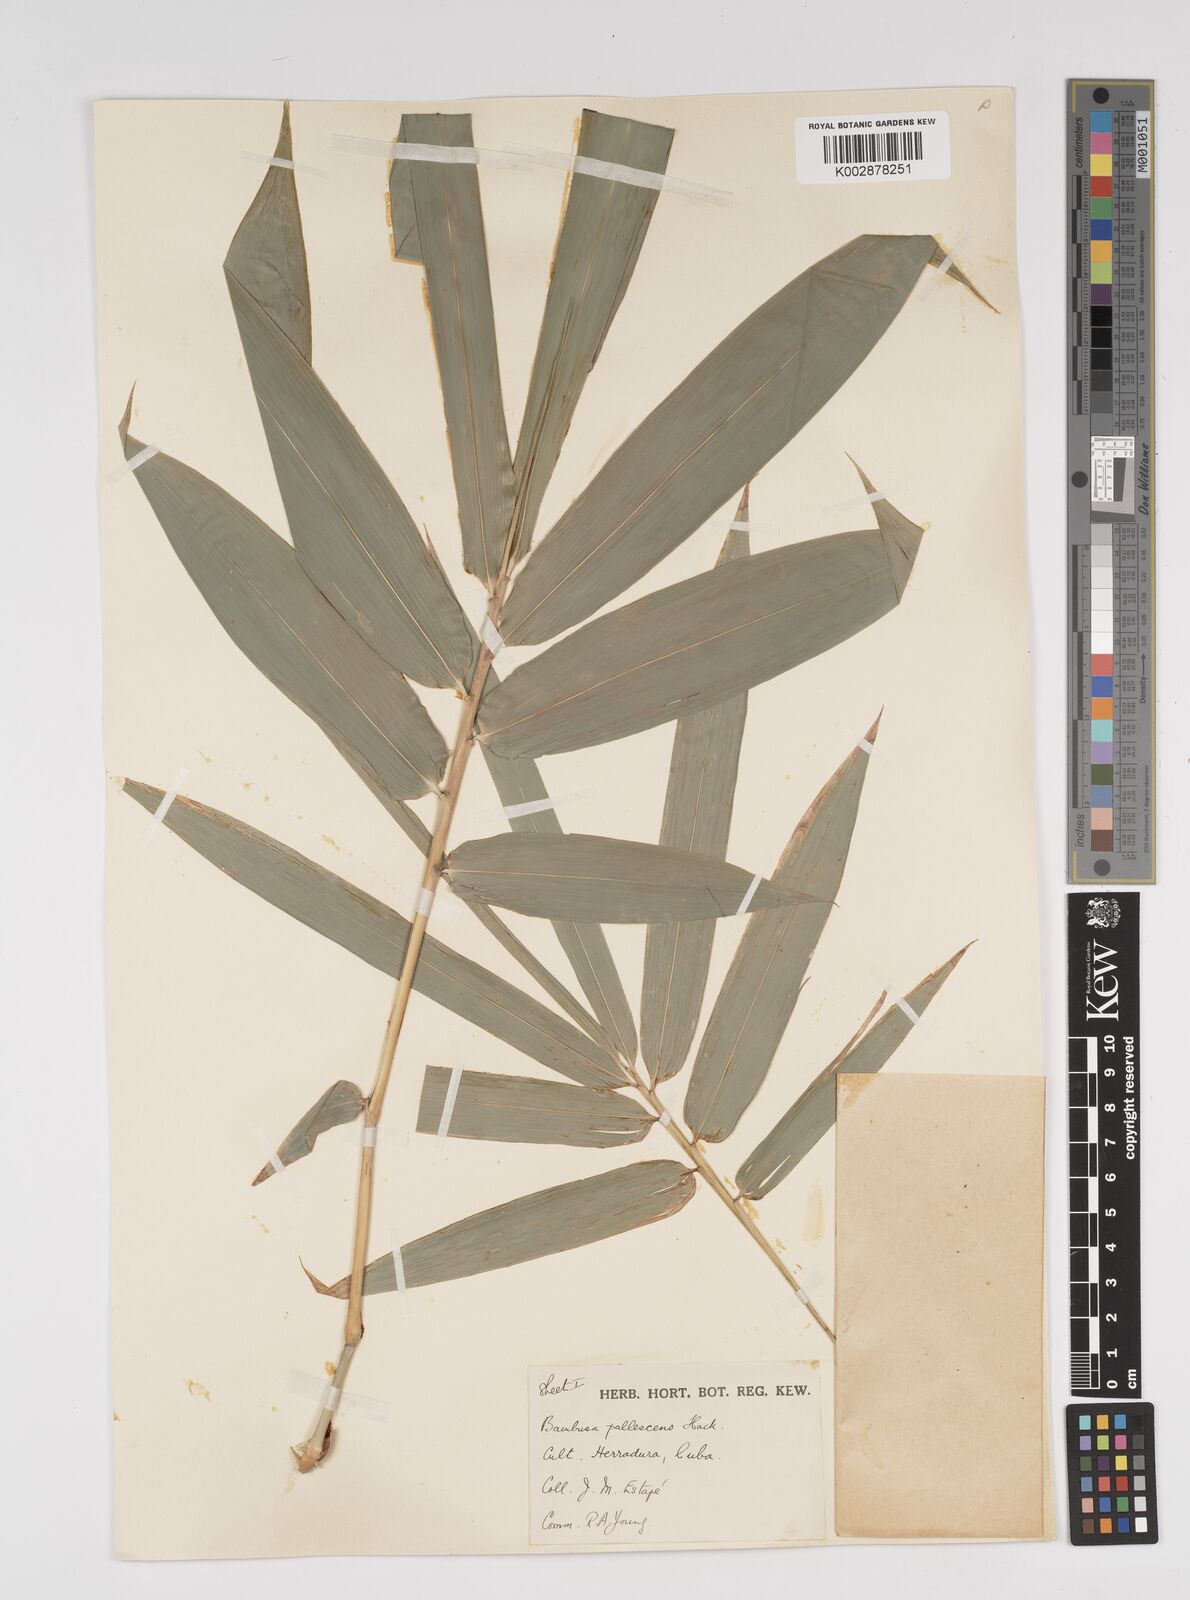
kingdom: Plantae
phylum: Tracheophyta
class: Liliopsida
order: Poales
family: Poaceae
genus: Bambusa
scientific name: Bambusa tuldoides
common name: Verdant bamboo
